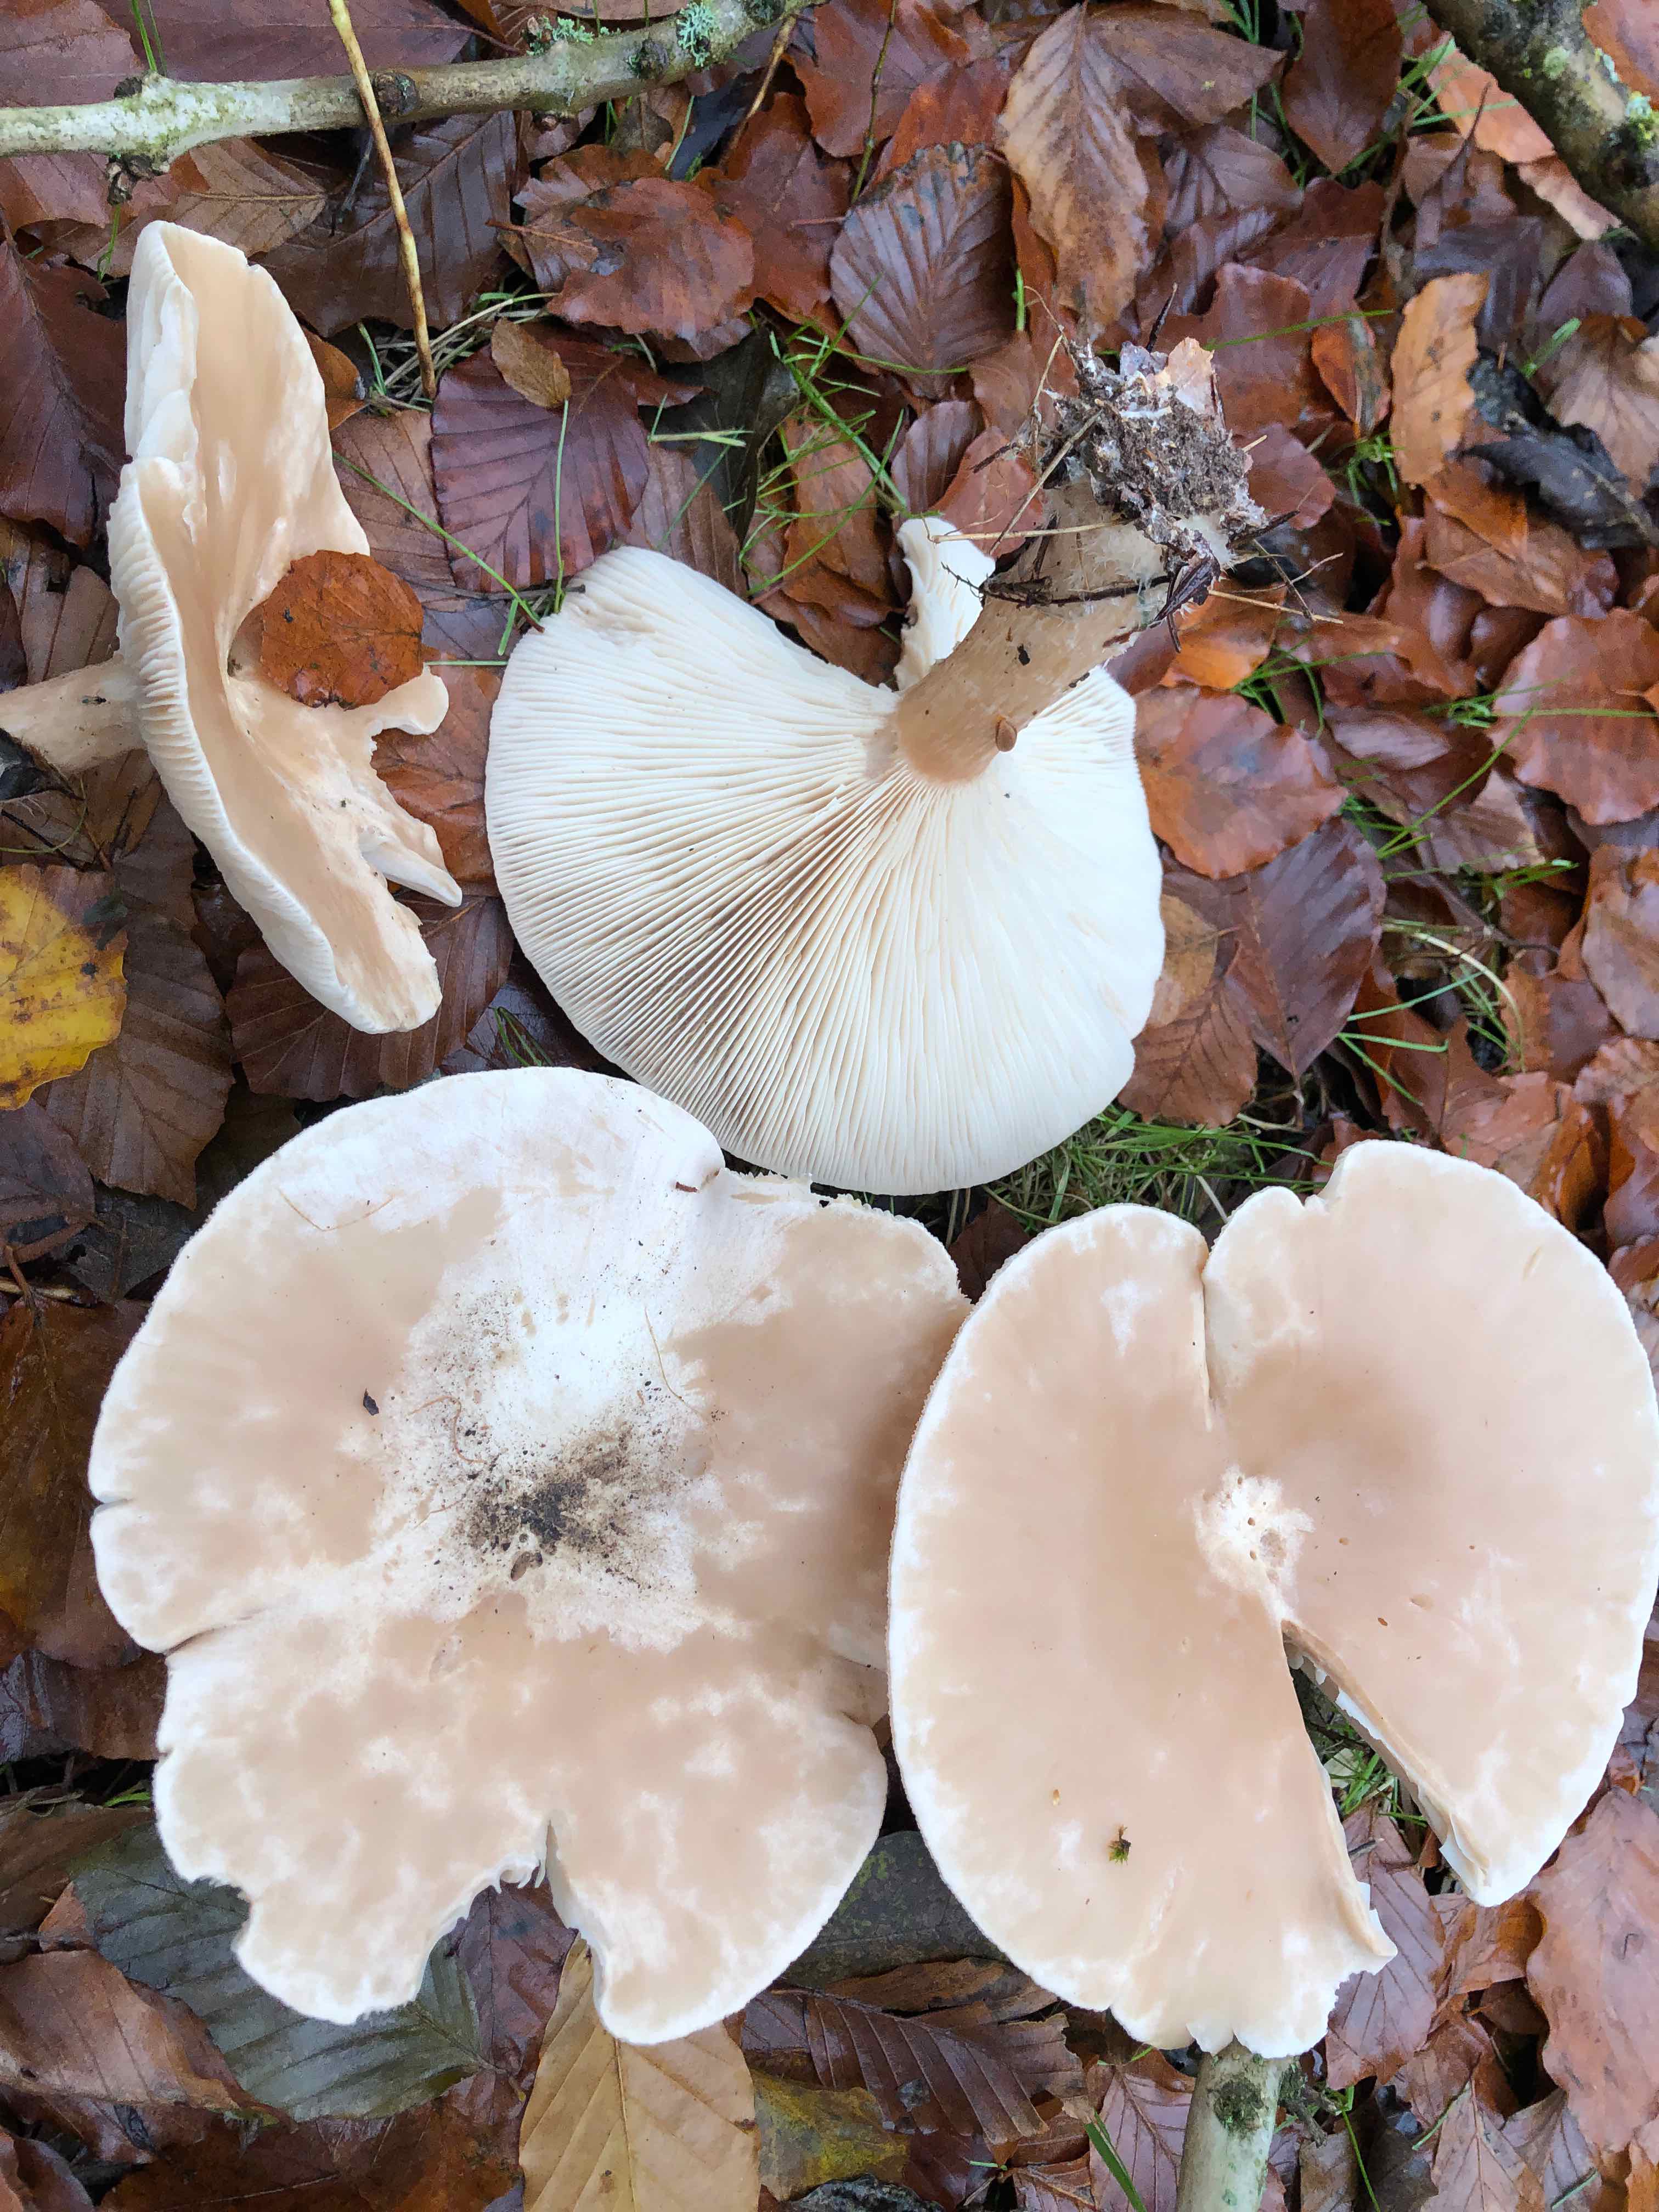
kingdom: Fungi
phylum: Basidiomycota
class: Agaricomycetes
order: Agaricales
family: Tricholomataceae
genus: Infundibulicybe
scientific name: Infundibulicybe geotropa
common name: stor tragthat
